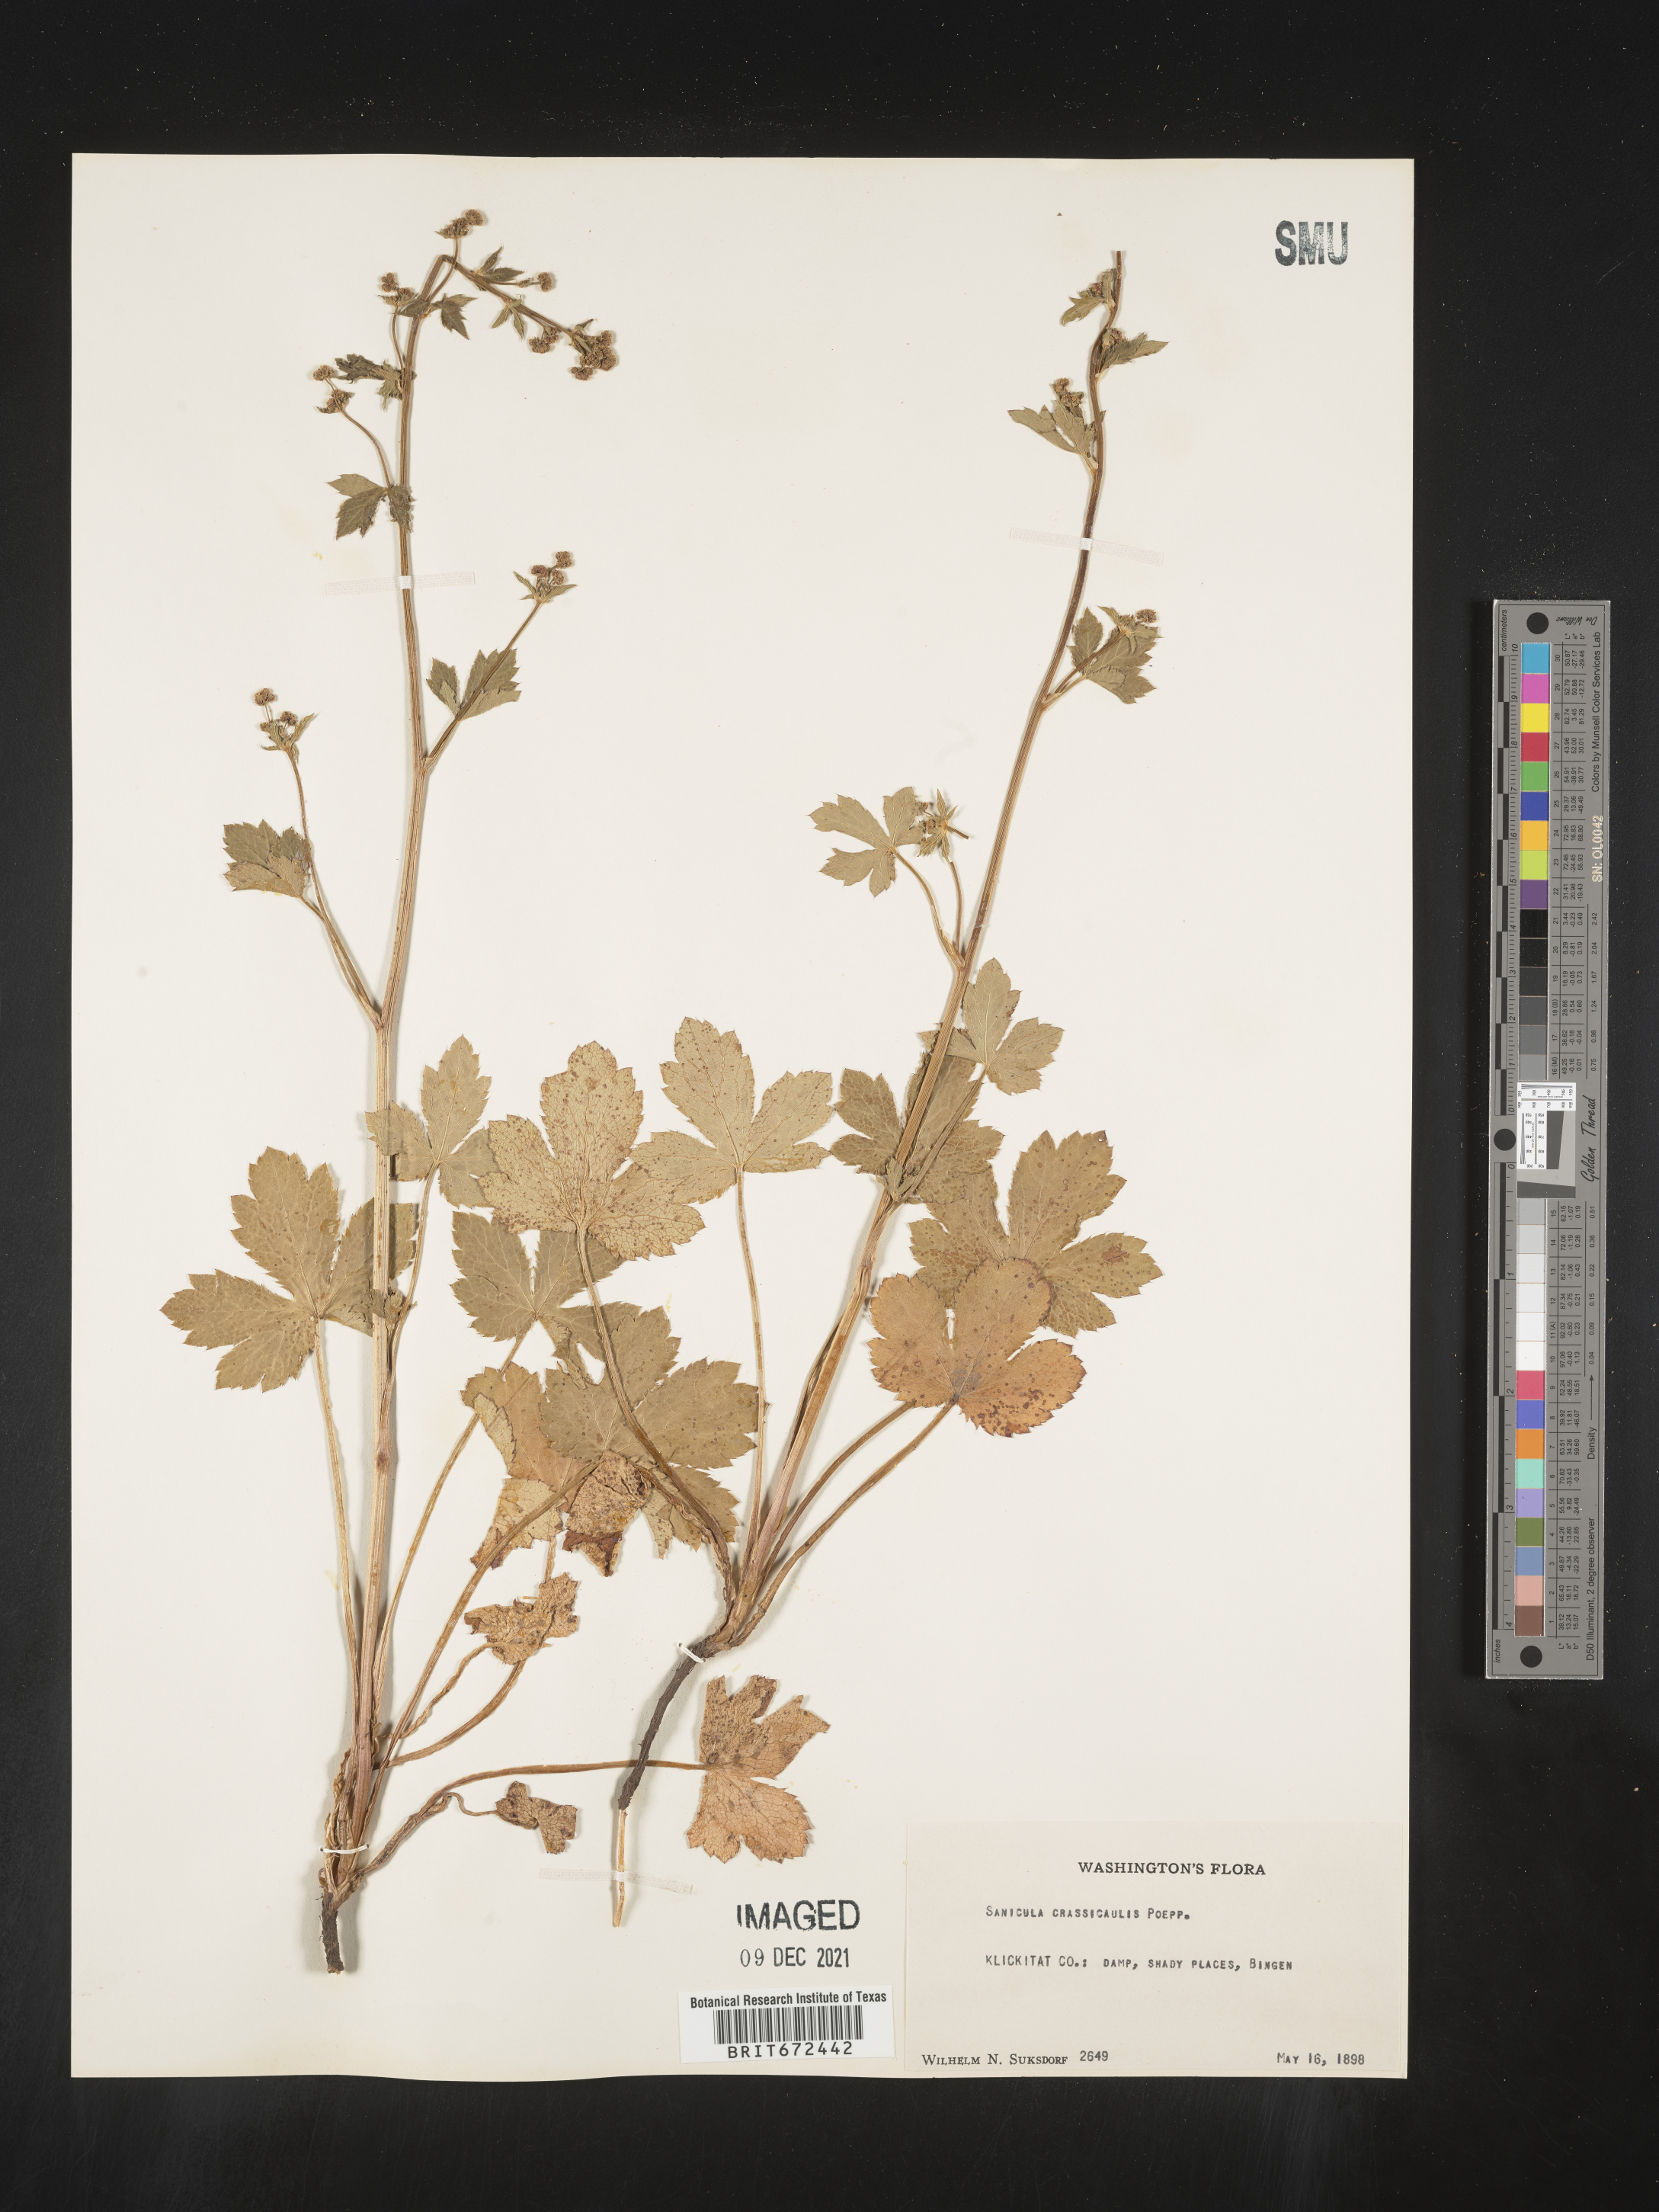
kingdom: Plantae
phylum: Tracheophyta
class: Magnoliopsida
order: Apiales
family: Apiaceae
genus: Sanicula
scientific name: Sanicula crassicaulis
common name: Western snakeroot
